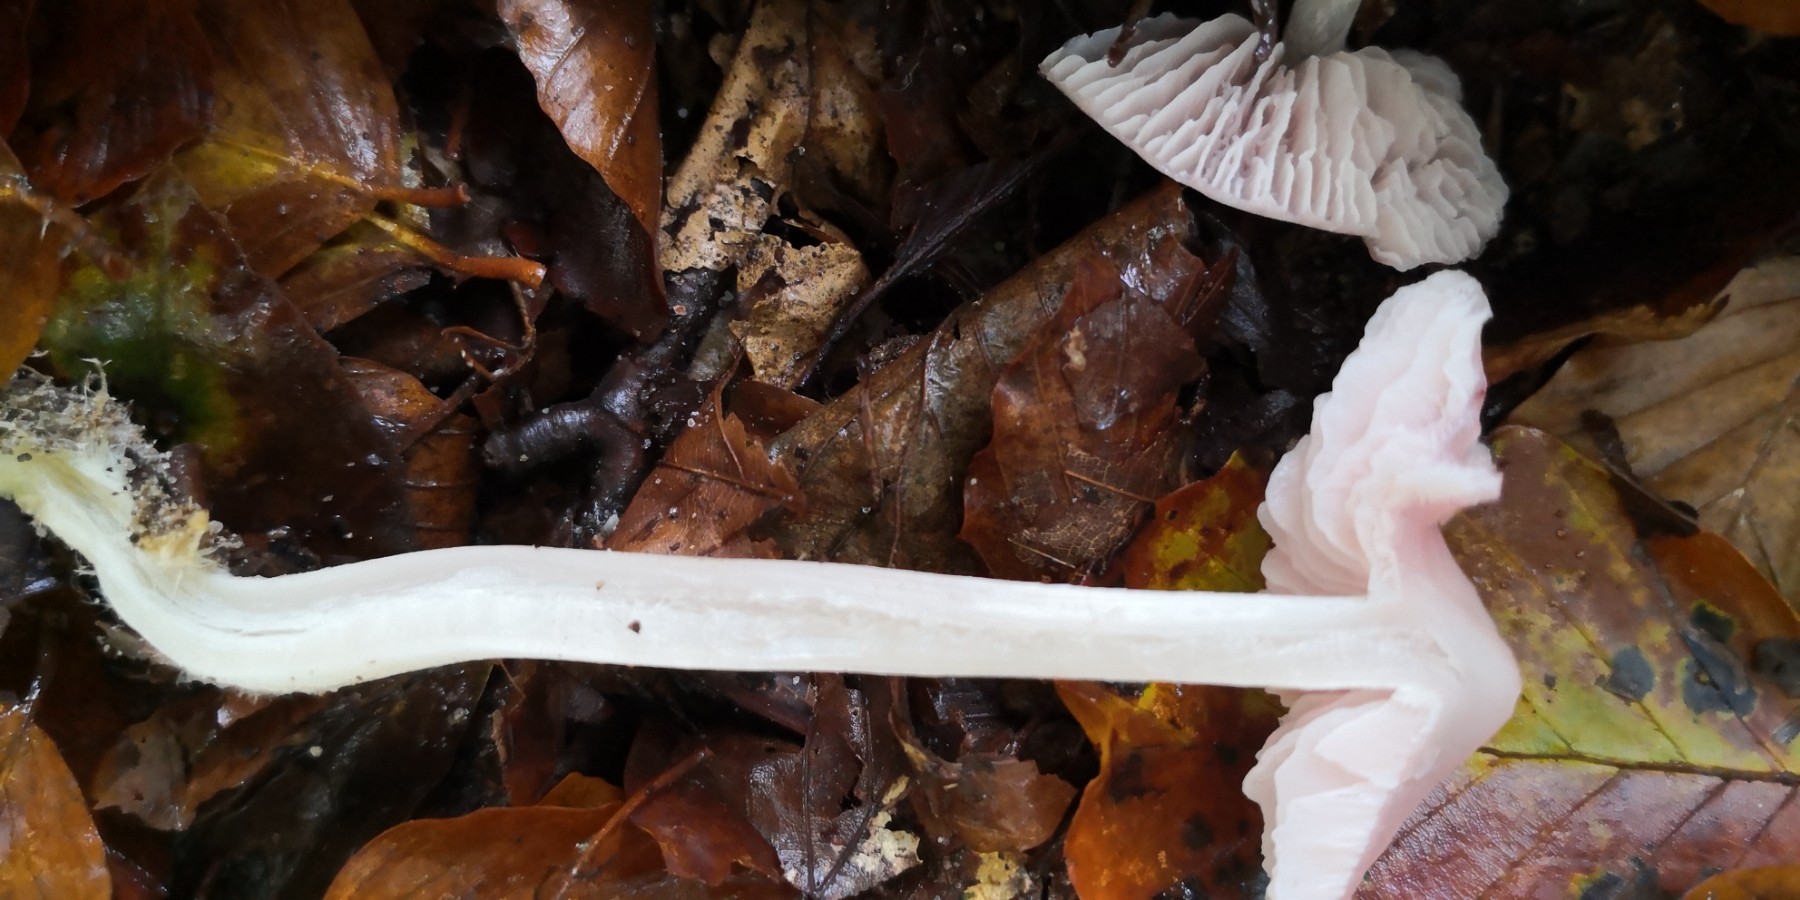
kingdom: Fungi
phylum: Basidiomycota
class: Agaricomycetes
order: Agaricales
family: Mycenaceae
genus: Mycena
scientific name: Mycena rosea
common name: rosa huesvamp
